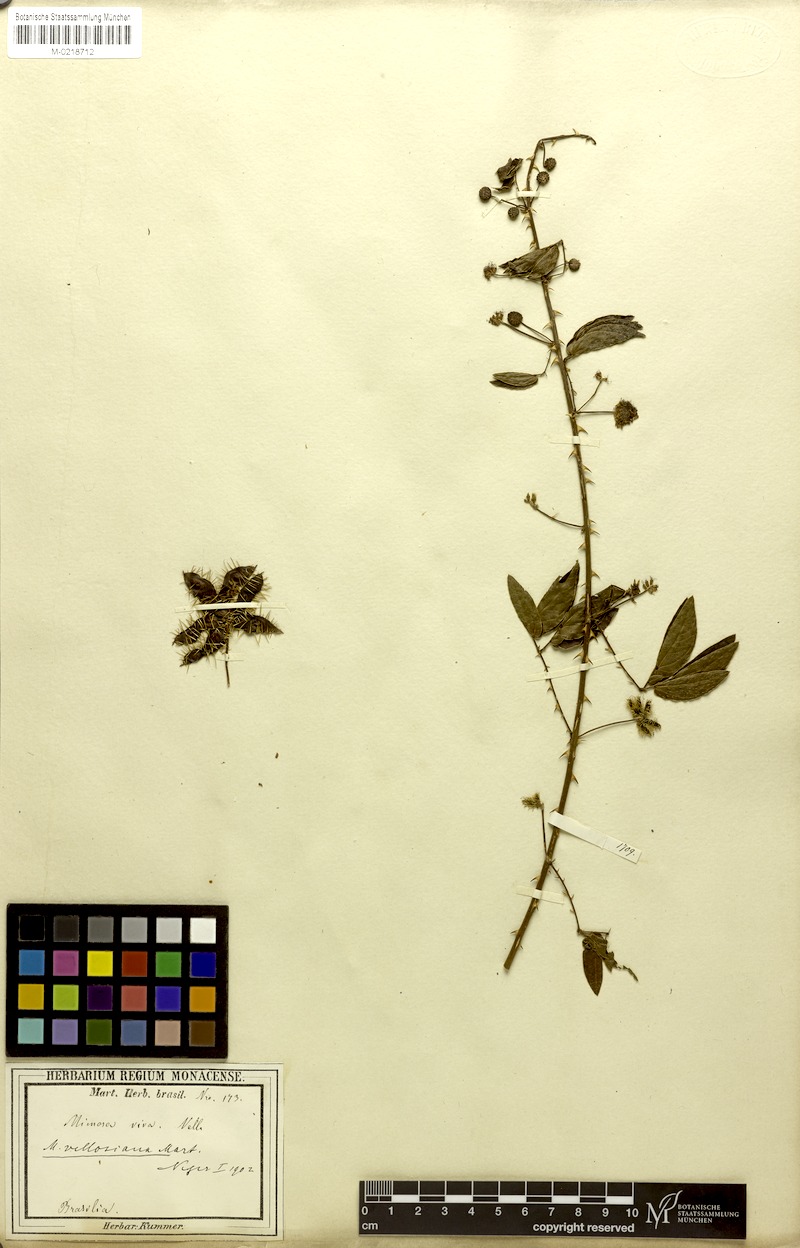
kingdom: Plantae
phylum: Tracheophyta
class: Magnoliopsida
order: Fabales
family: Fabaceae
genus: Mimosa
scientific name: Mimosa velloziana
